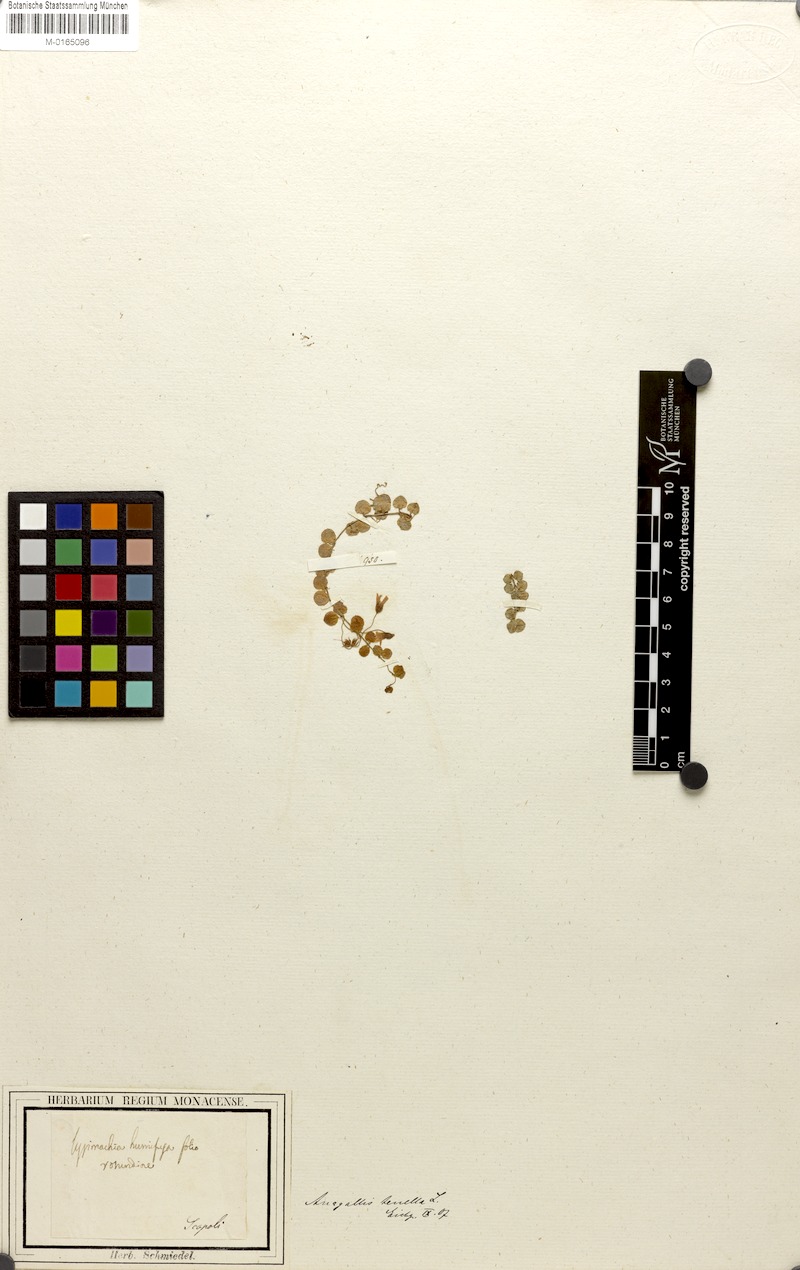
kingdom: Plantae
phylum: Tracheophyta
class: Magnoliopsida
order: Ericales
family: Primulaceae
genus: Lysimachia
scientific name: Lysimachia tenella
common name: European bog pimpernel
